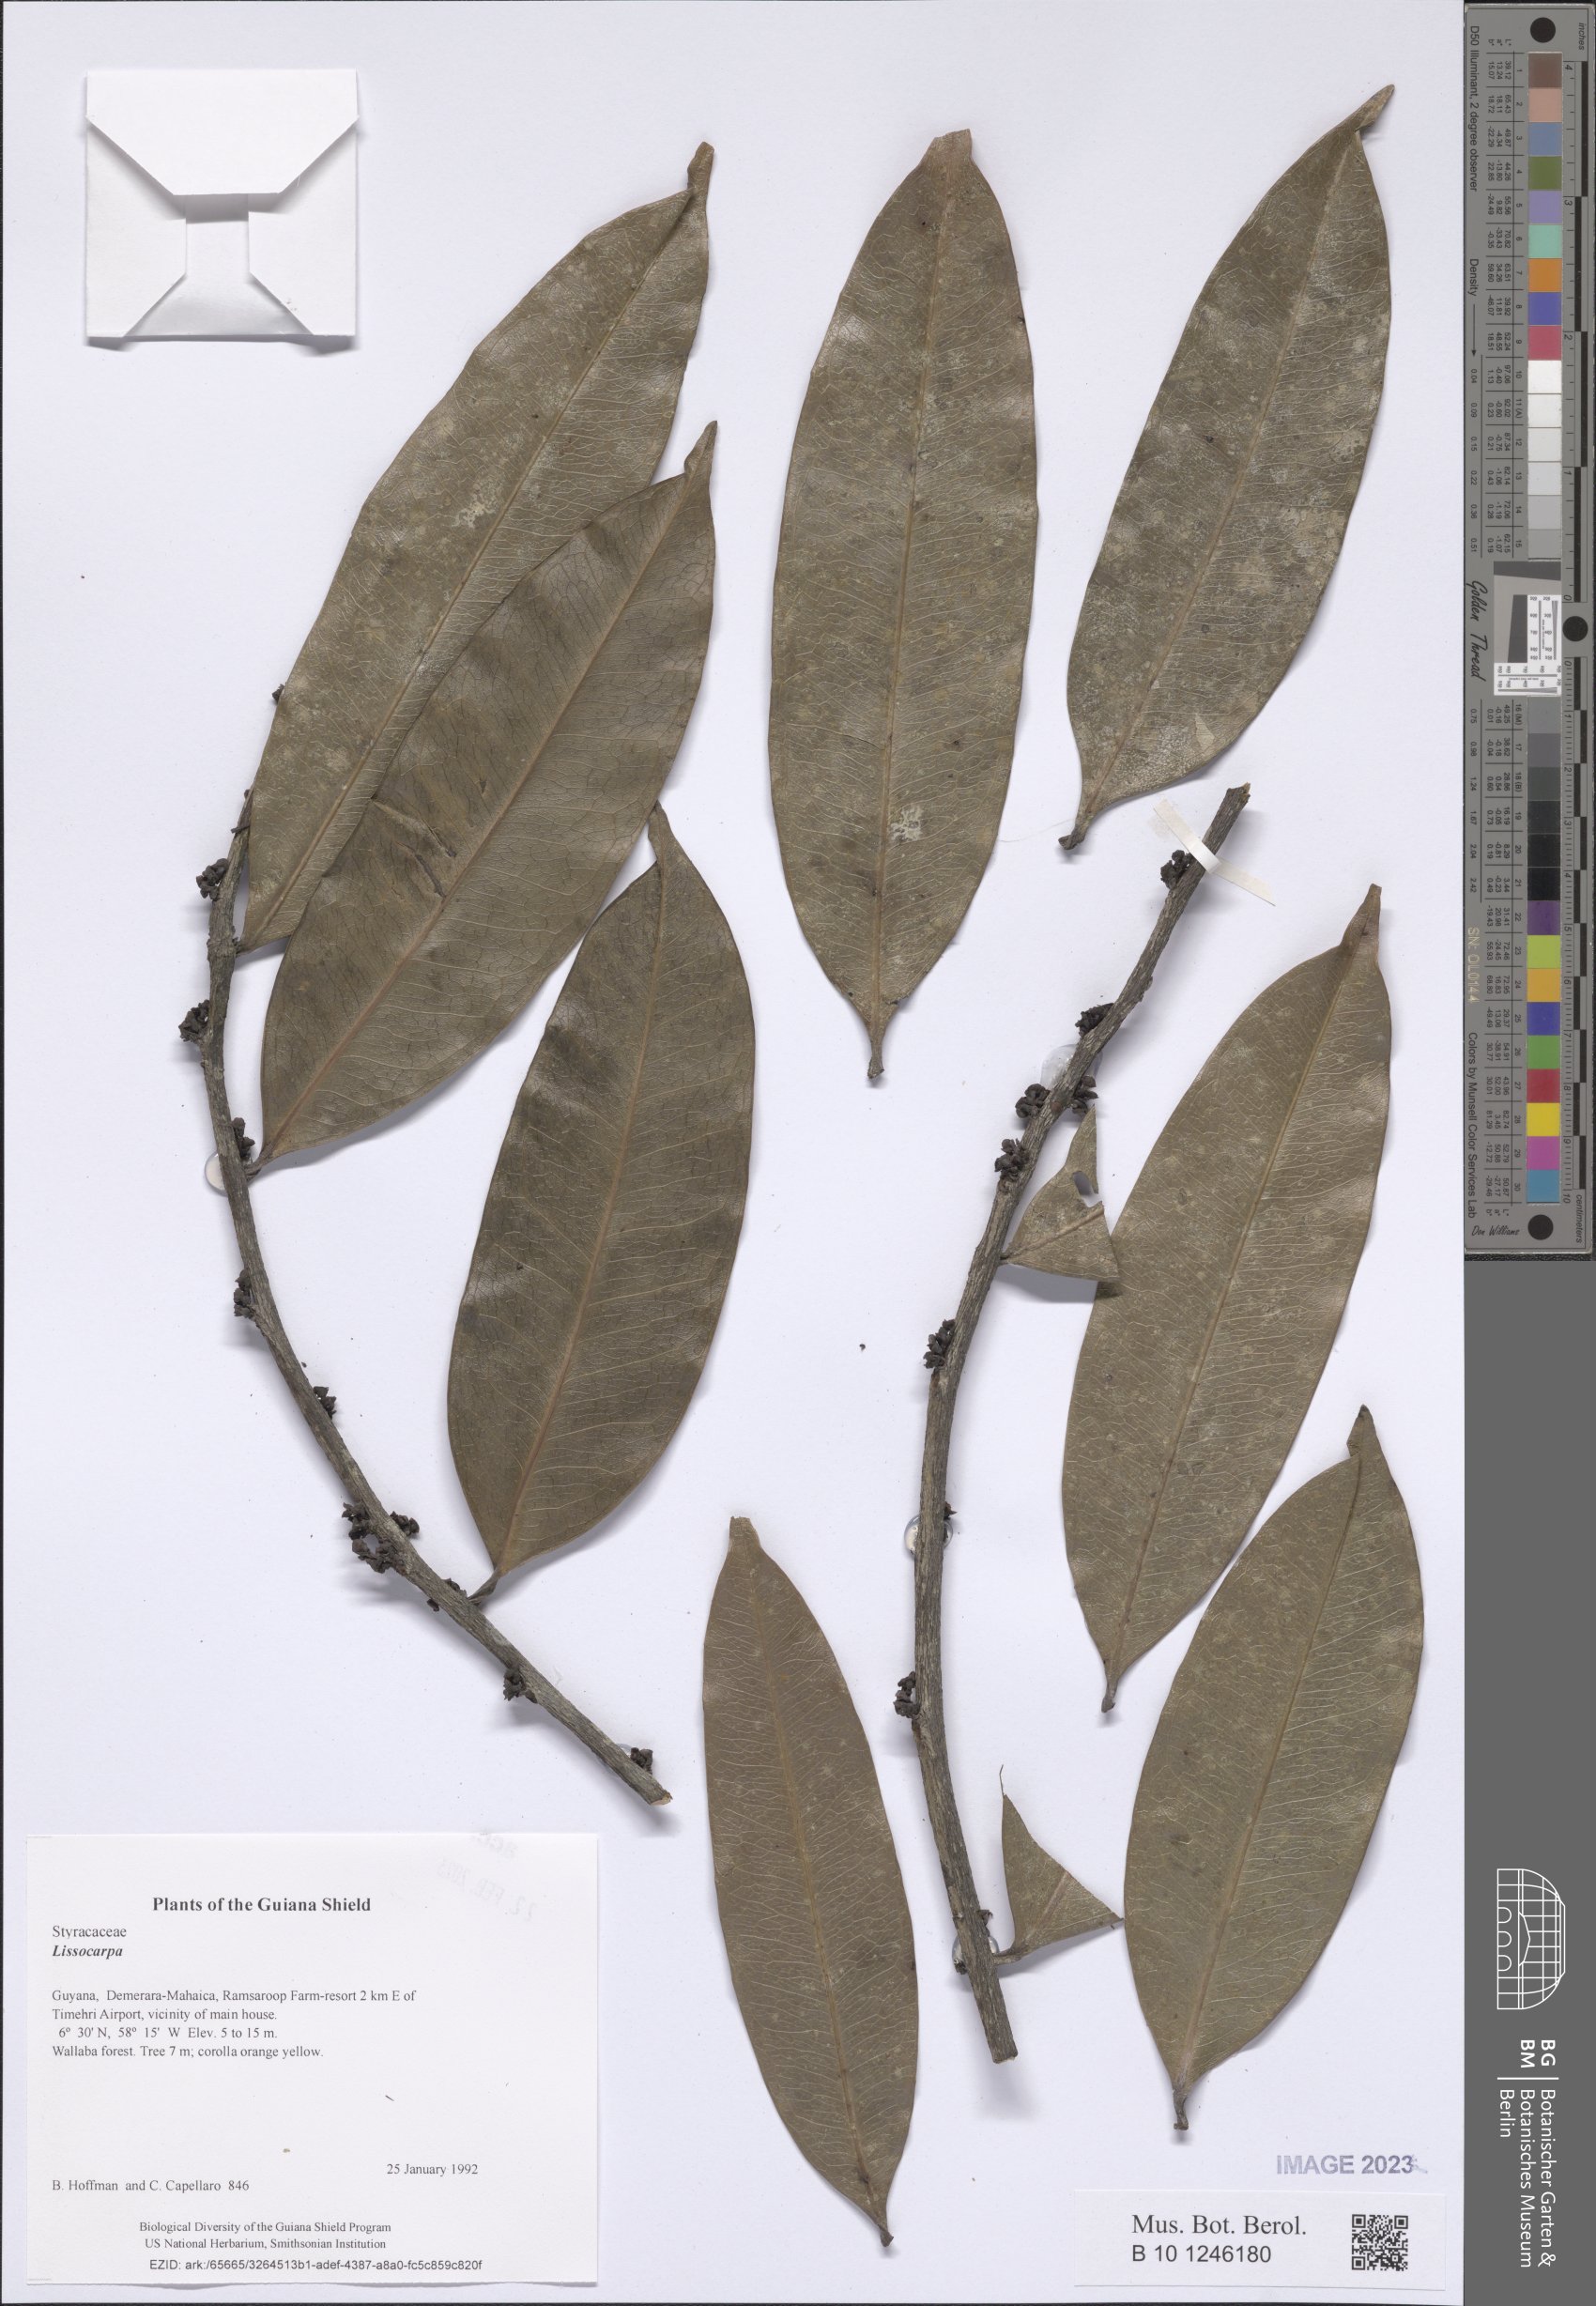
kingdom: Plantae
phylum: Tracheophyta
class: Magnoliopsida
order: Ericales
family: Ebenaceae
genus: Lissocarpa
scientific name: Lissocarpa
